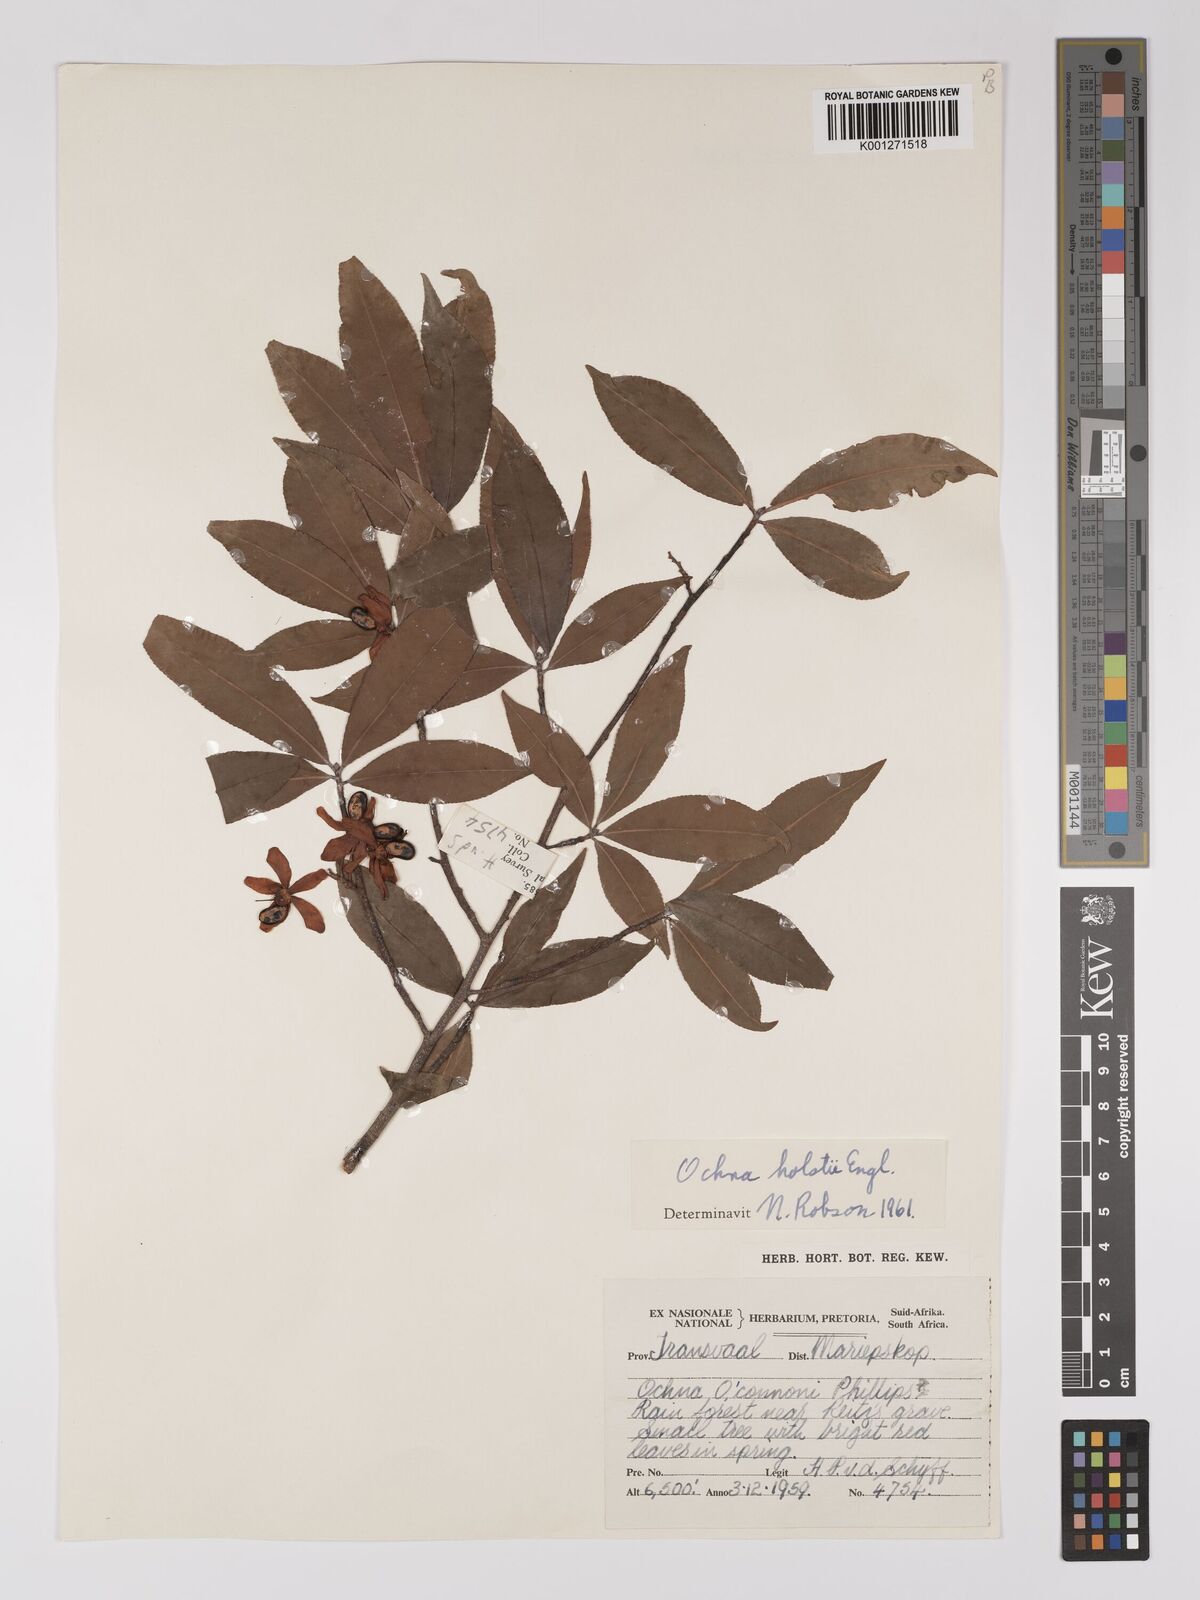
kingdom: Plantae
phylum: Tracheophyta
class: Magnoliopsida
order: Malpighiales
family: Ochnaceae
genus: Ochna
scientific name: Ochna holstii
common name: Red ironwood
